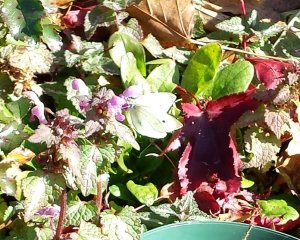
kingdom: Animalia
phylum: Arthropoda
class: Insecta
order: Lepidoptera
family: Pieridae
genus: Pieris
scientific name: Pieris rapae
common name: Cabbage White
